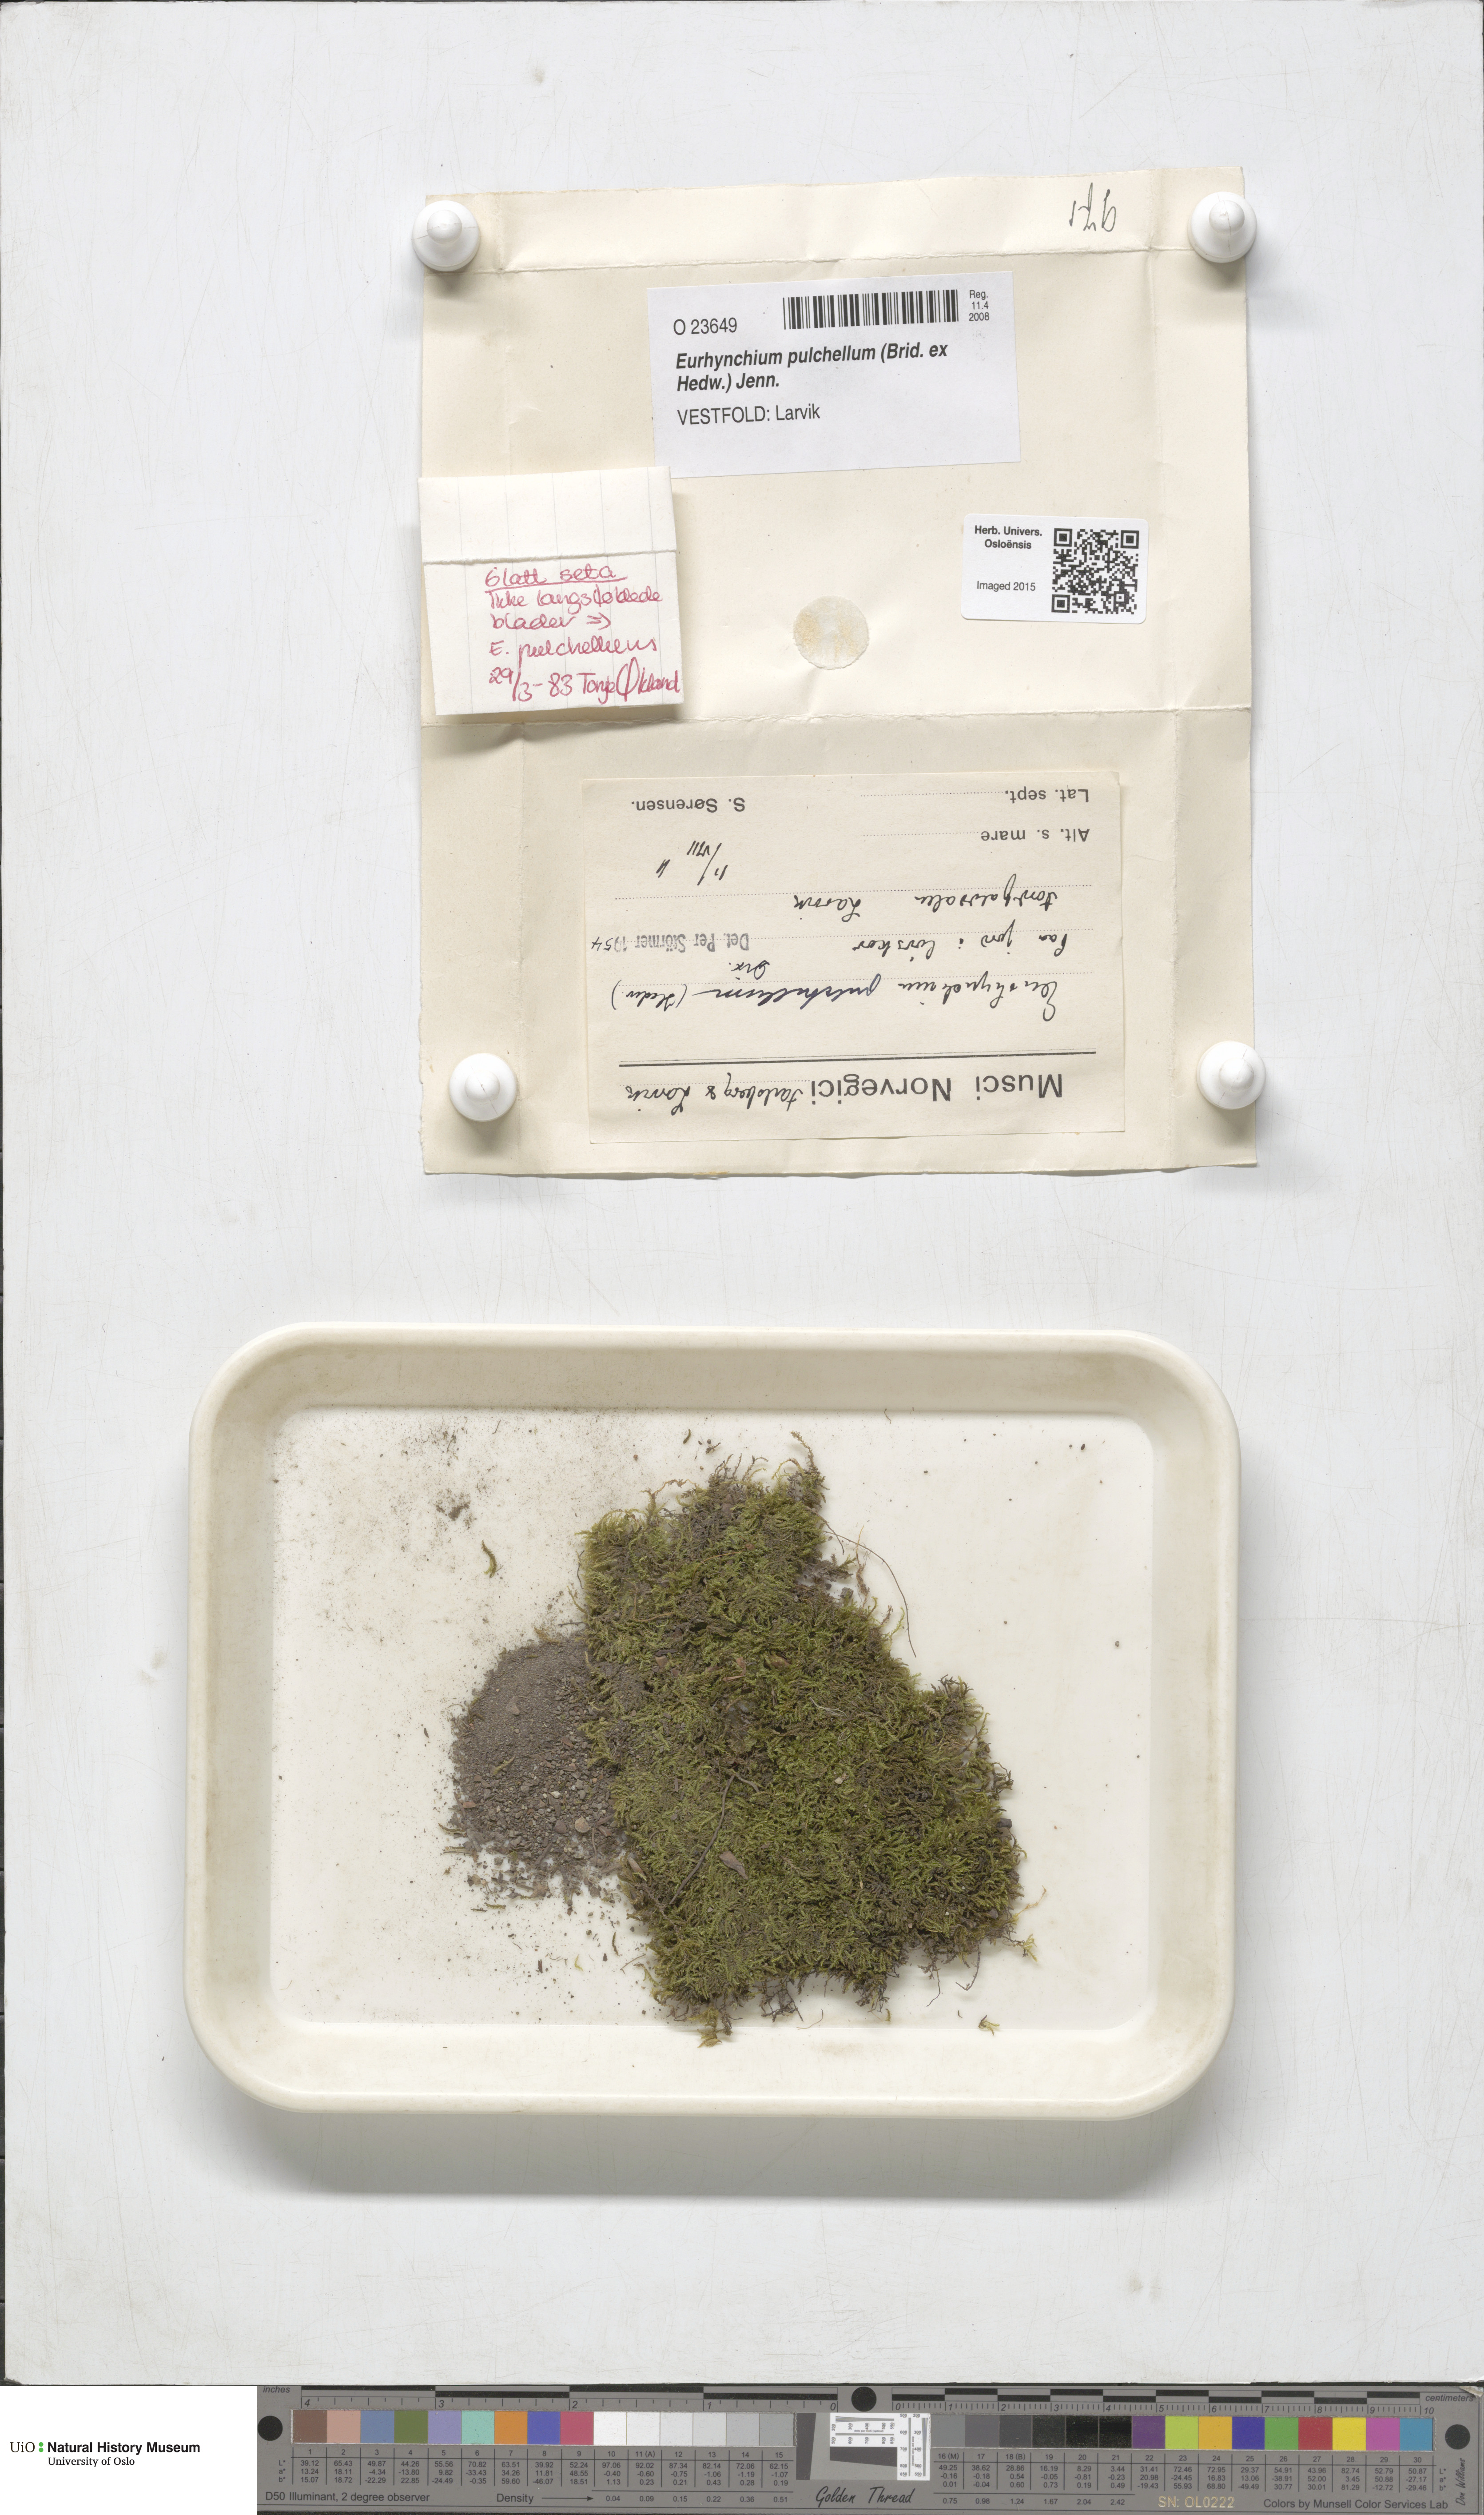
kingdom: Plantae
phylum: Bryophyta
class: Bryopsida
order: Hypnales
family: Brachytheciaceae
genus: Eurhynchiastrum
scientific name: Eurhynchiastrum pulchellum
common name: Elegant beaked moss
